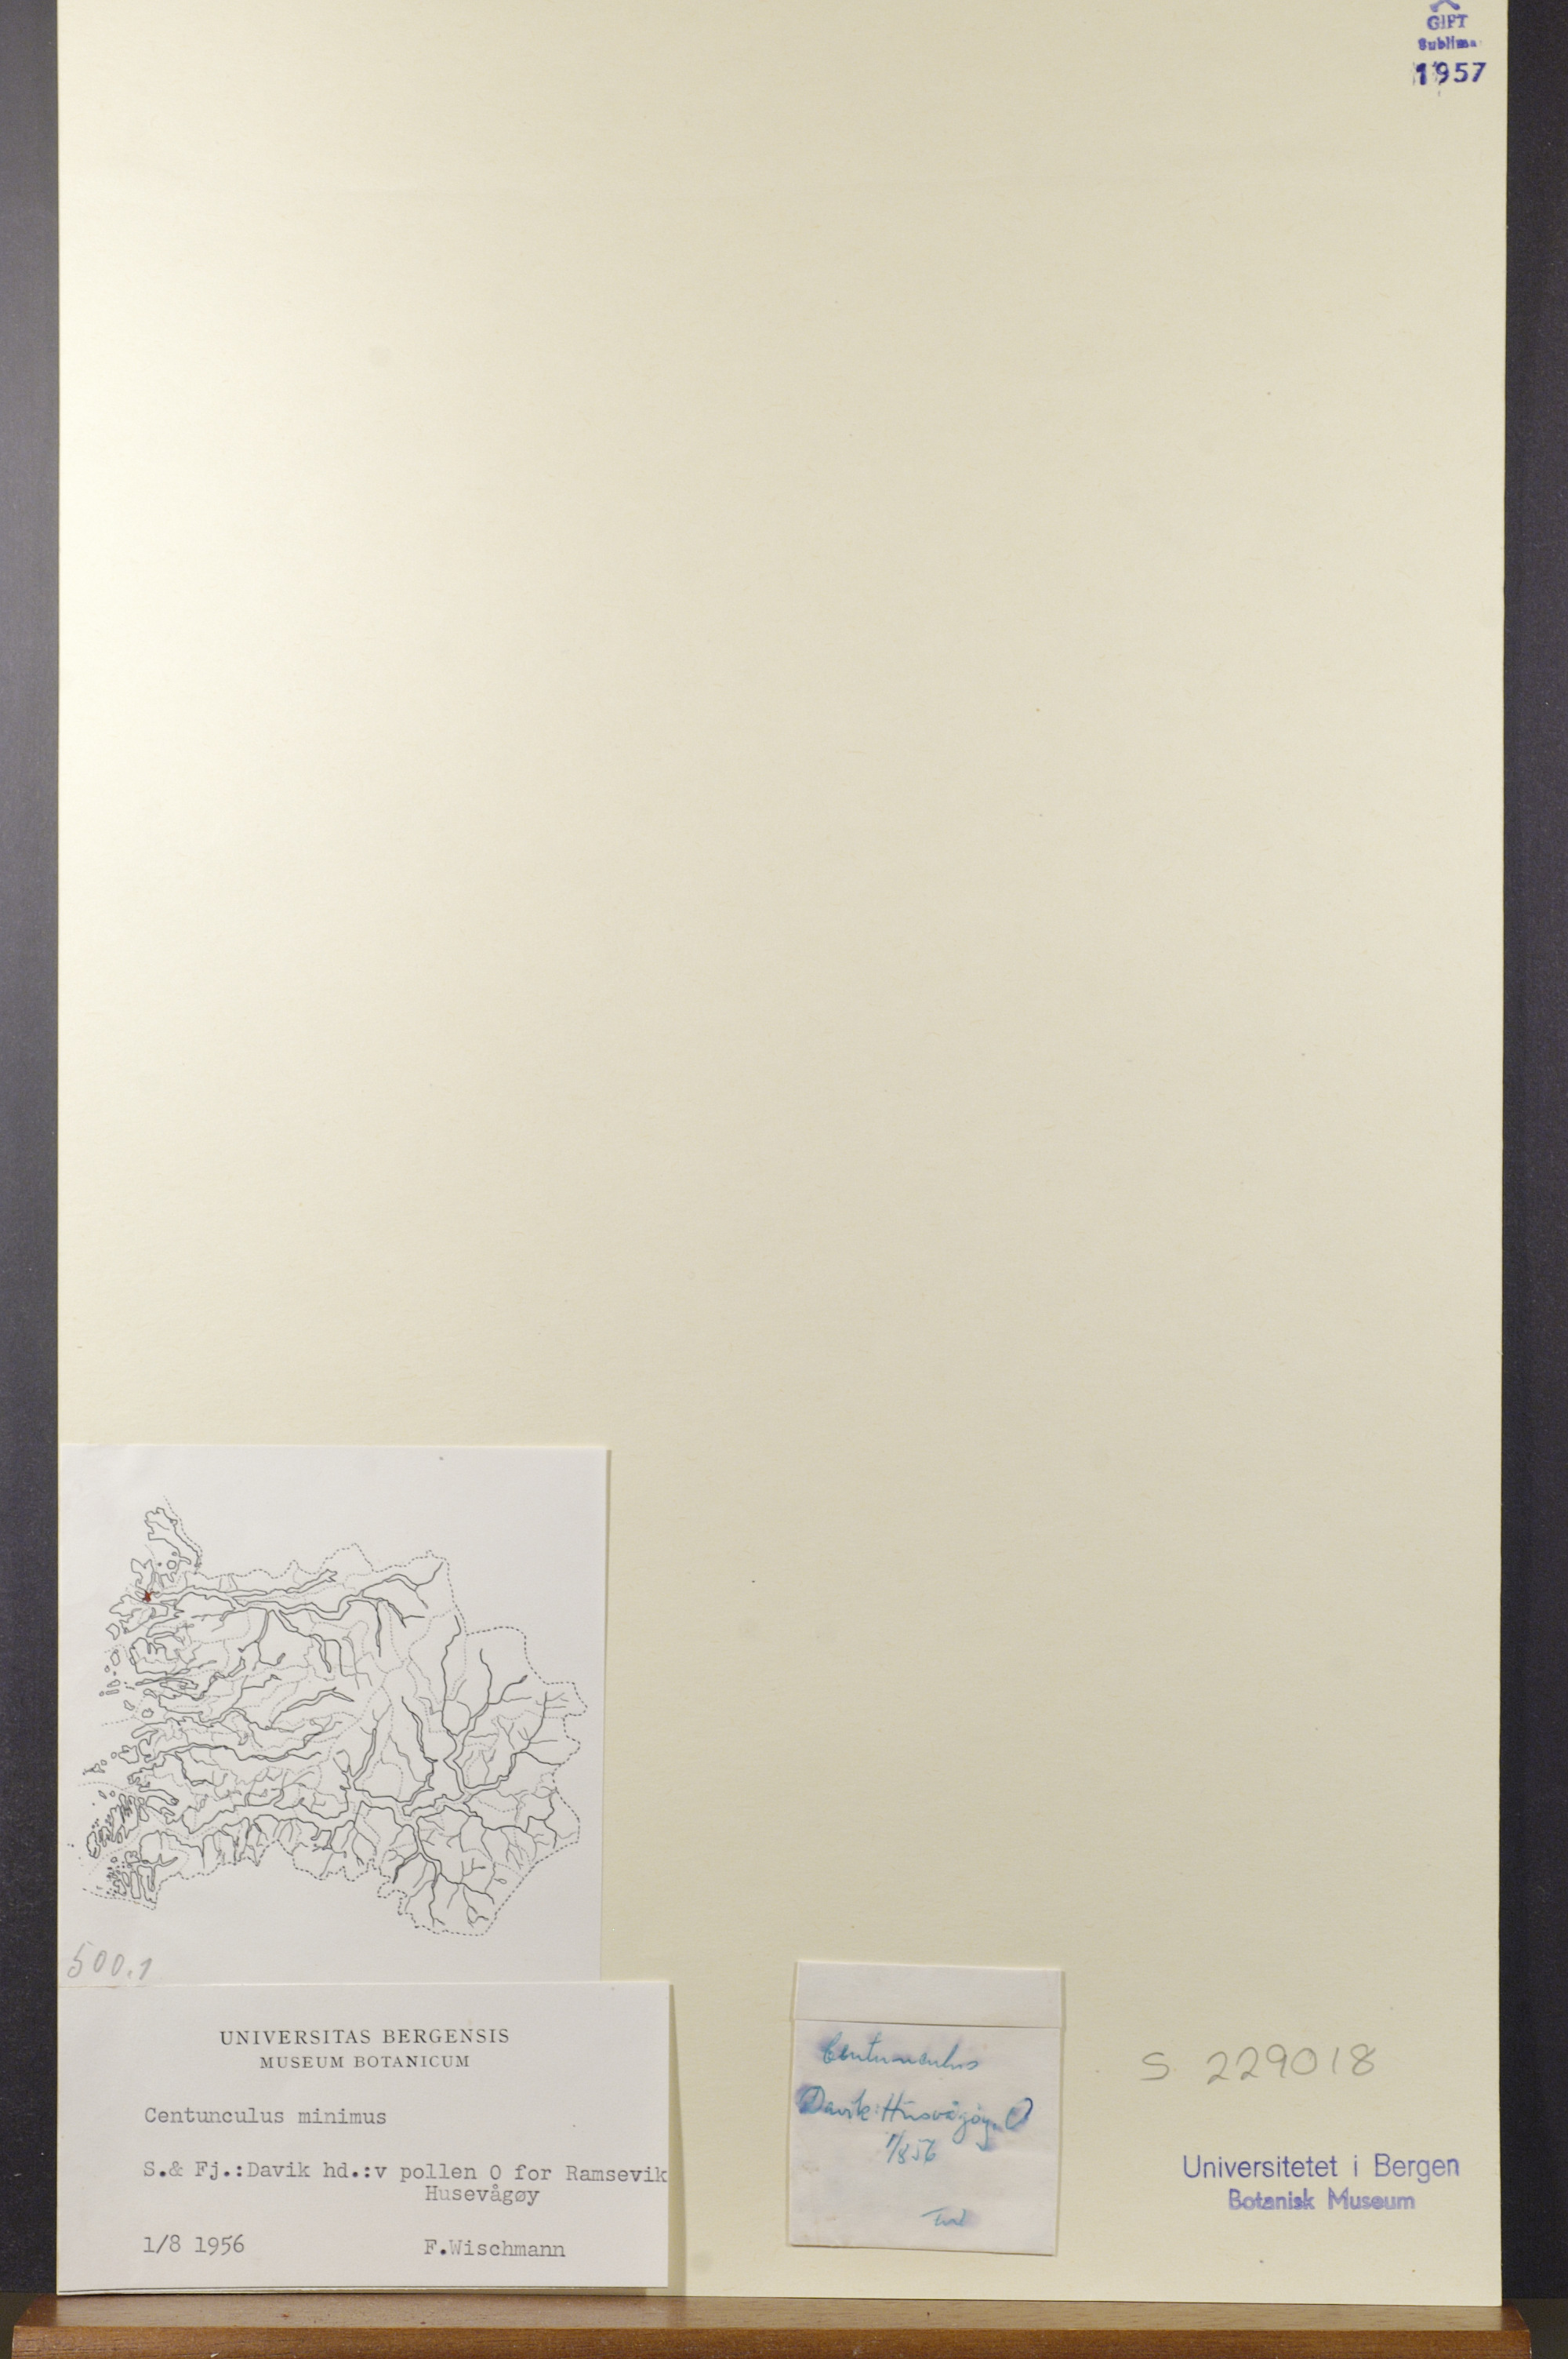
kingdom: Plantae
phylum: Tracheophyta
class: Magnoliopsida
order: Ericales
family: Primulaceae
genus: Lysimachia
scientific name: Lysimachia minima
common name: Chaffweed
